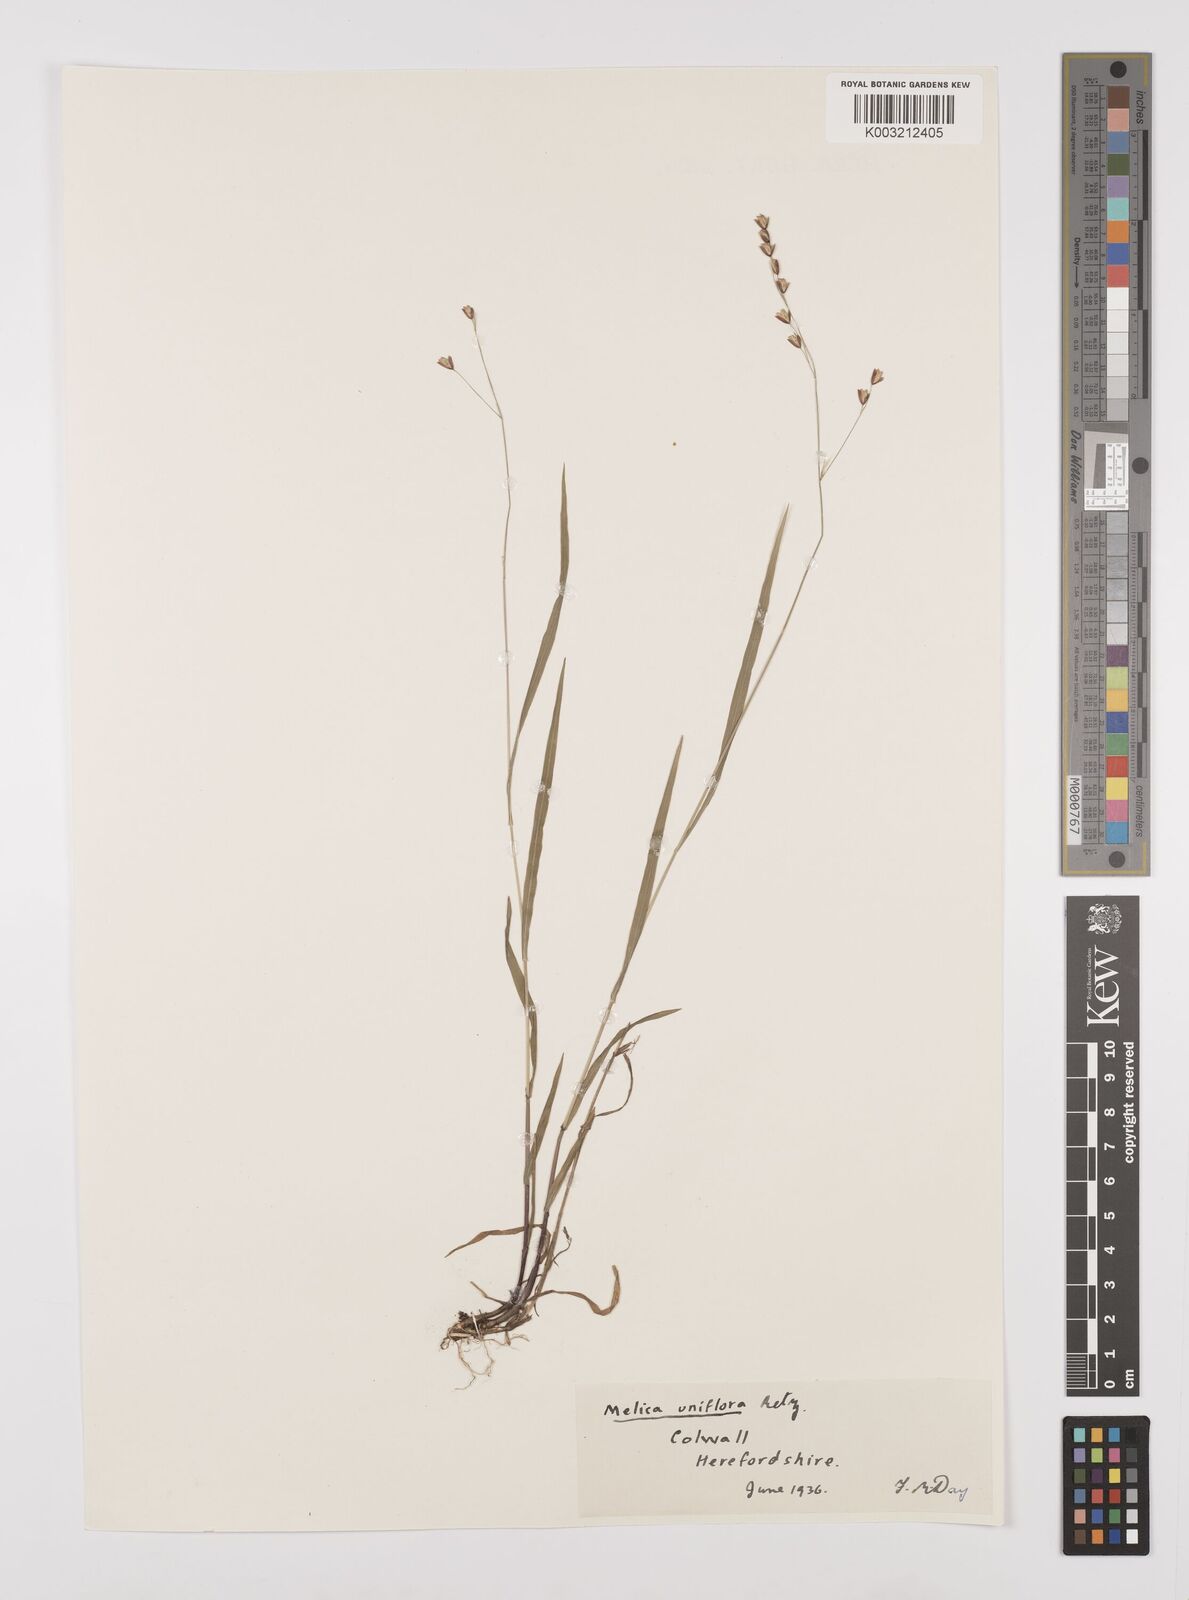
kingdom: Plantae
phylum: Tracheophyta
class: Liliopsida
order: Poales
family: Poaceae
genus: Melica
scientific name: Melica uniflora
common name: Wood melick
